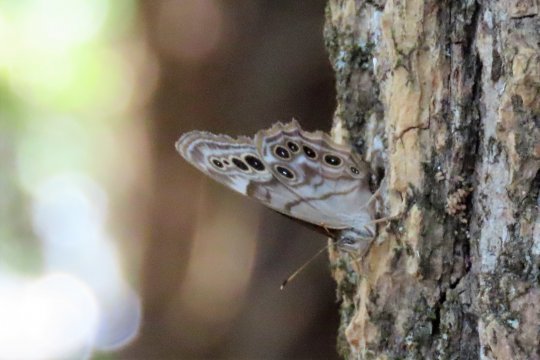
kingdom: Animalia
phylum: Arthropoda
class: Insecta
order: Lepidoptera
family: Nymphalidae
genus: Lethe
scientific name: Lethe anthedon
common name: Northern Pearly-Eye
